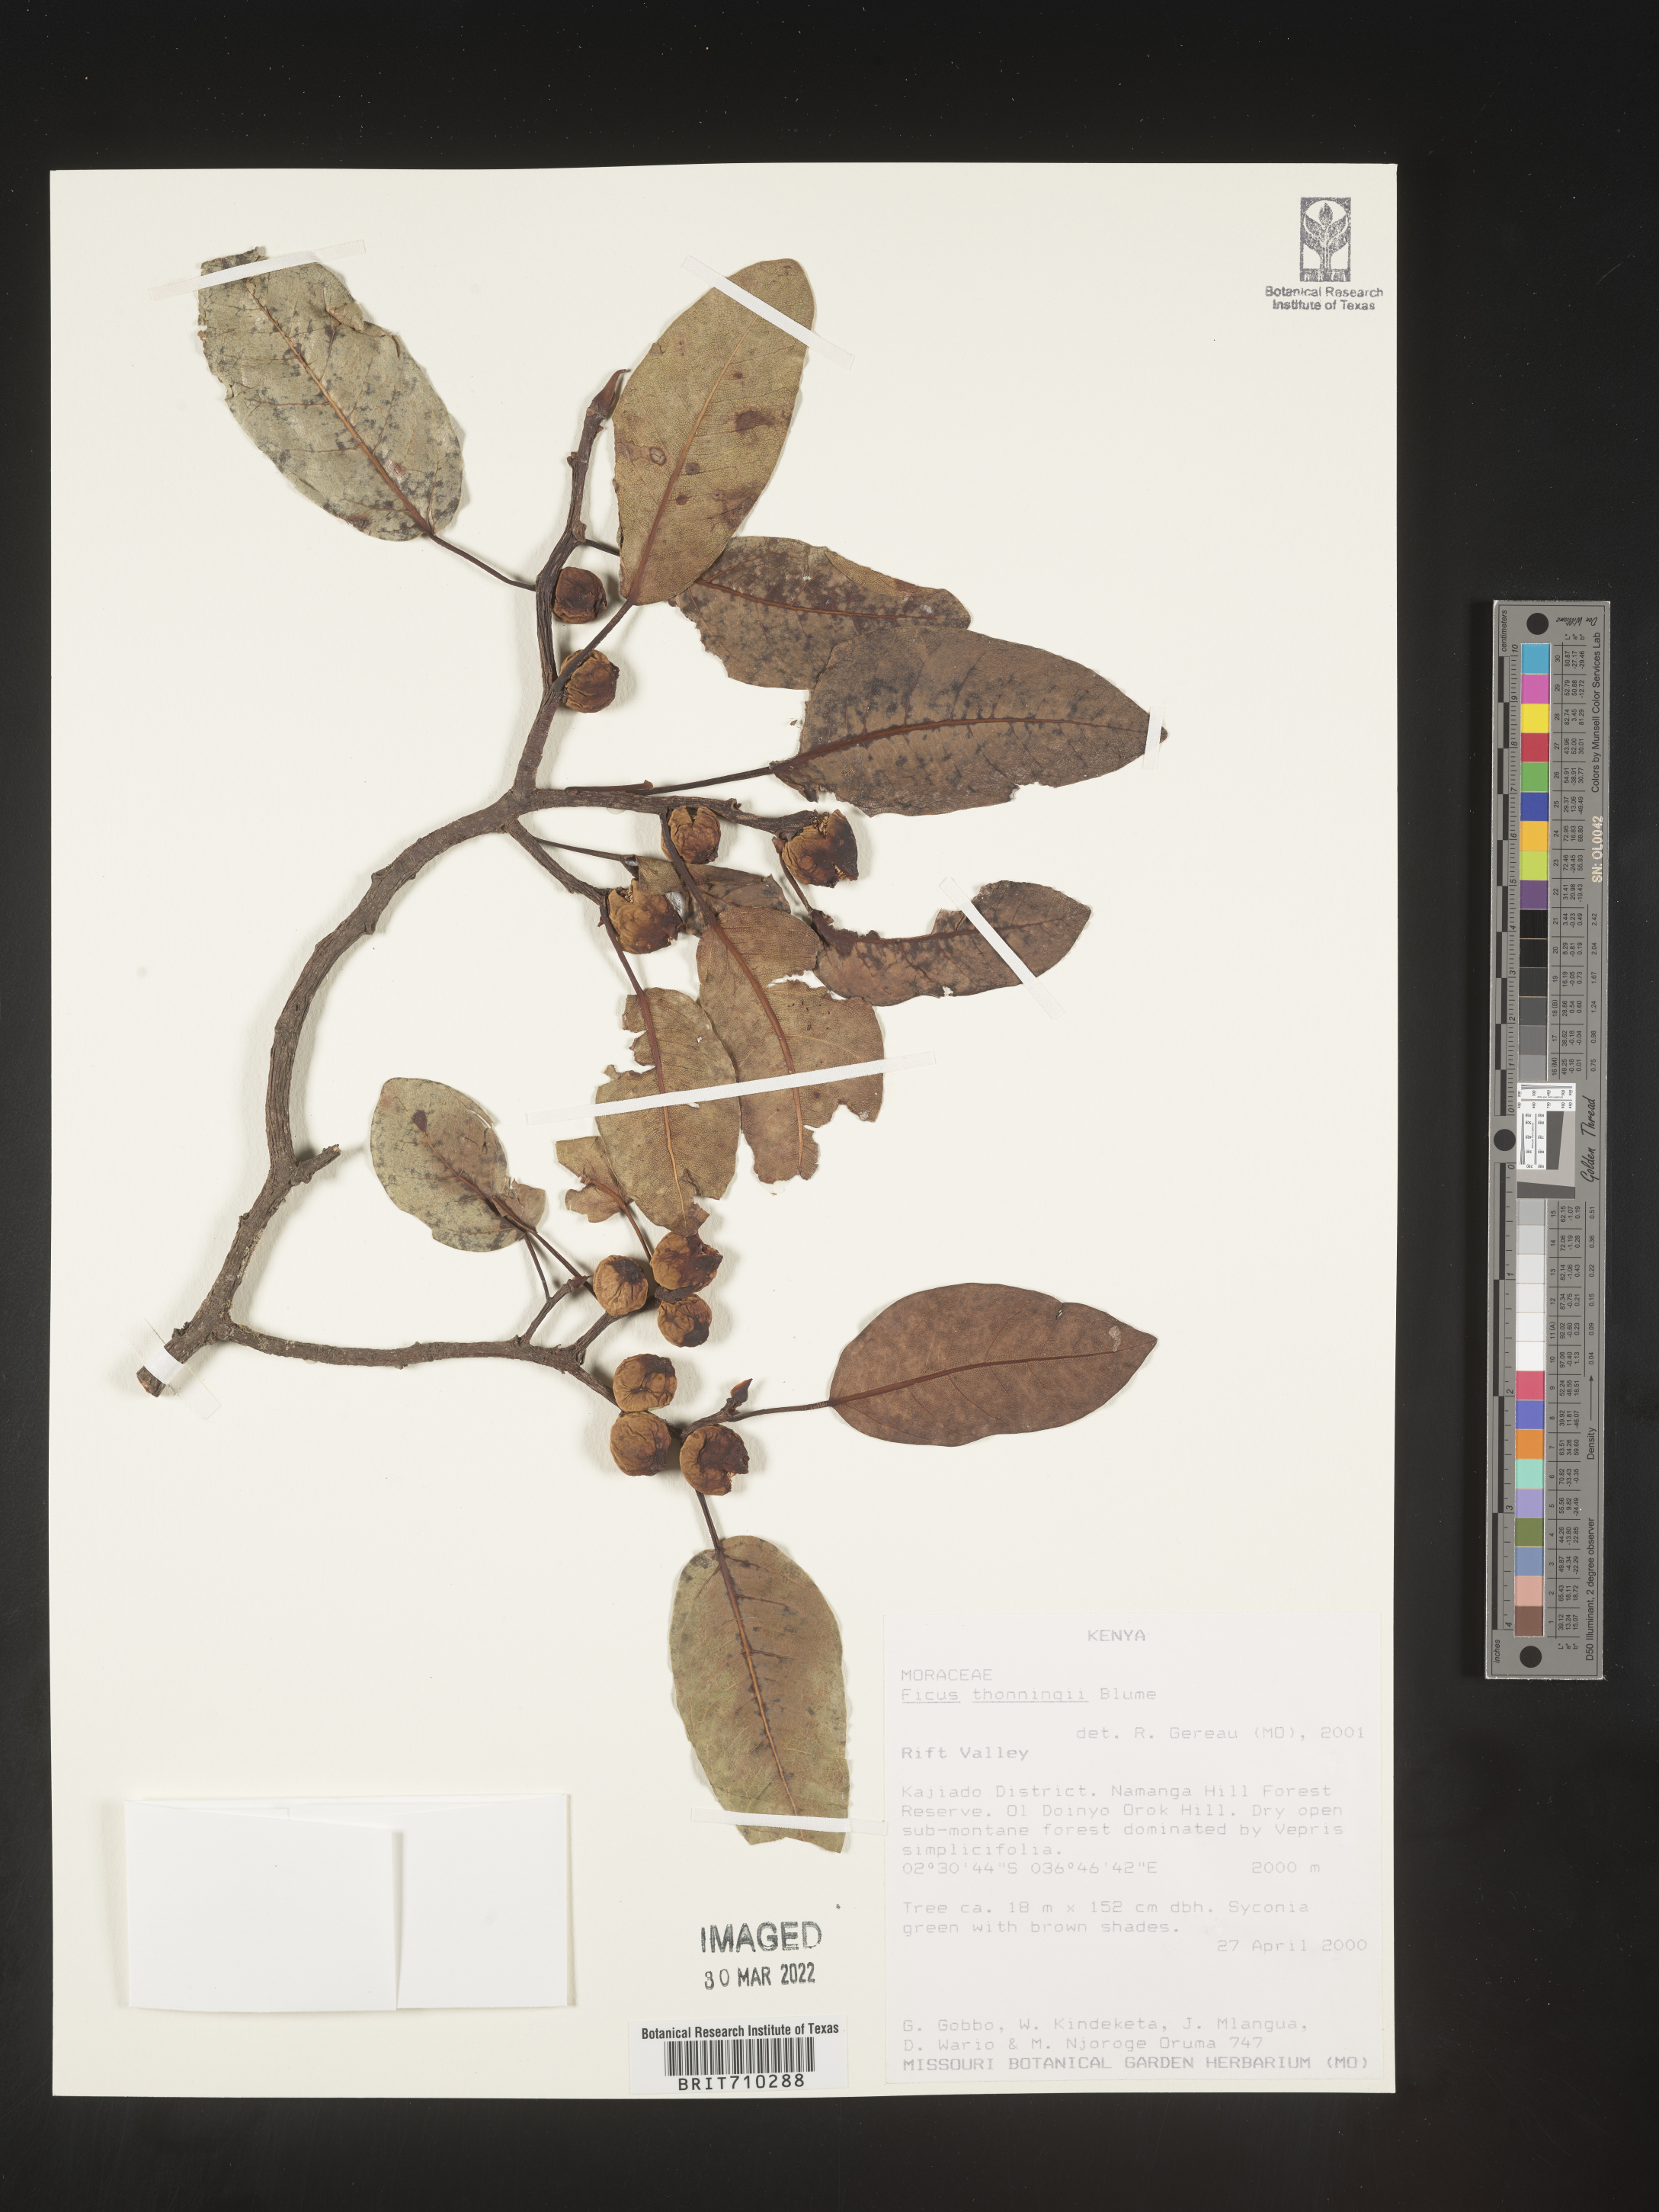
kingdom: Plantae
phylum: Tracheophyta
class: Magnoliopsida
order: Rosales
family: Moraceae
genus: Ficus
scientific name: Ficus
